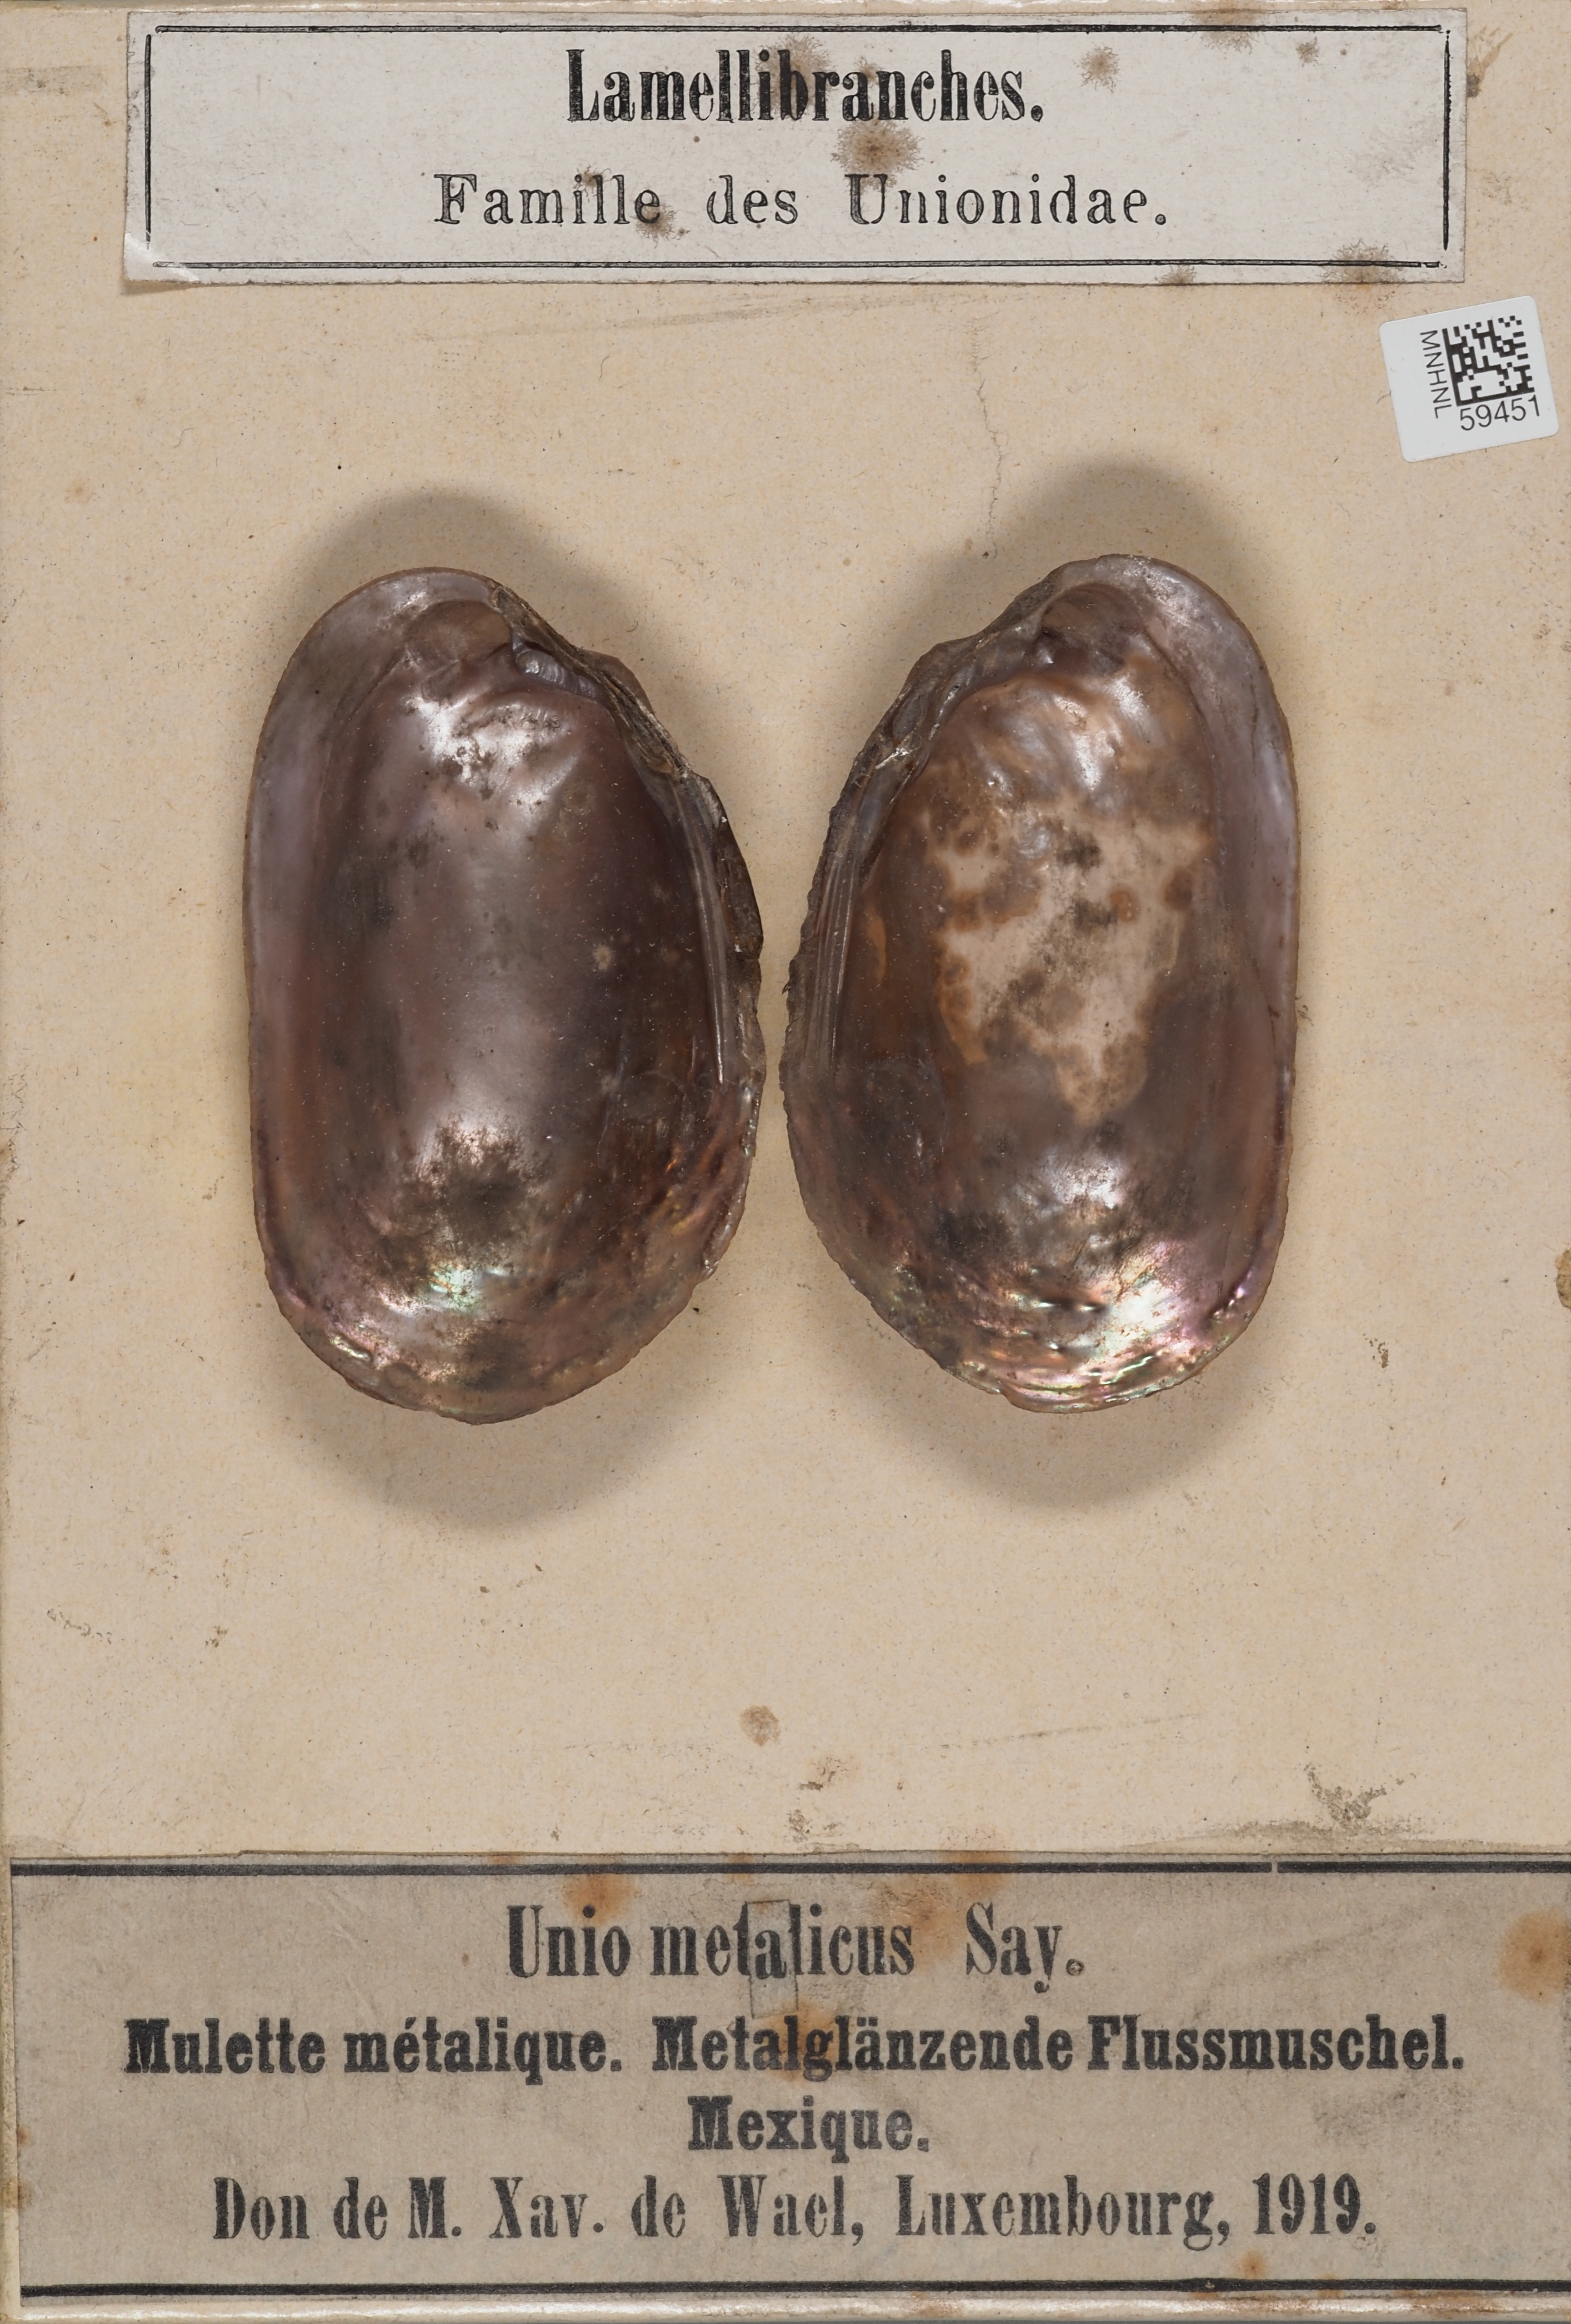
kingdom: Animalia
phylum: Mollusca
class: Bivalvia
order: Unionida
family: Unionidae
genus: Popenaias
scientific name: Popenaias metallica
